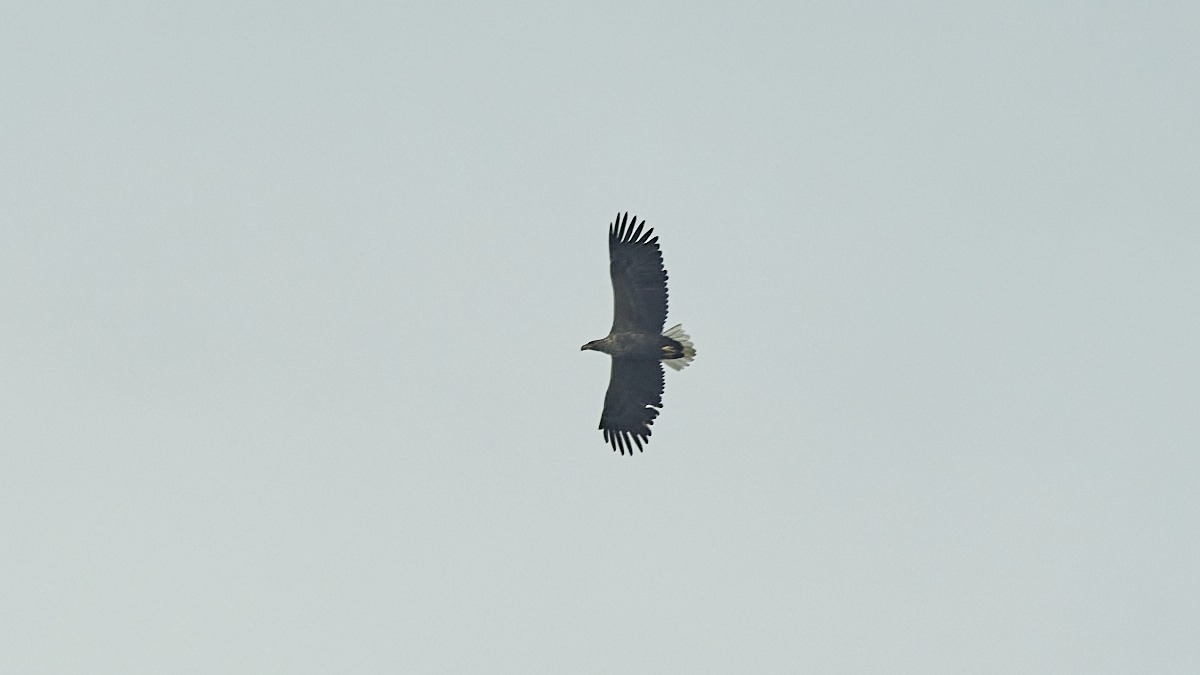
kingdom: Animalia
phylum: Chordata
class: Aves
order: Accipitriformes
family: Accipitridae
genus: Haliaeetus
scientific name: Haliaeetus albicilla
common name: Havørn
